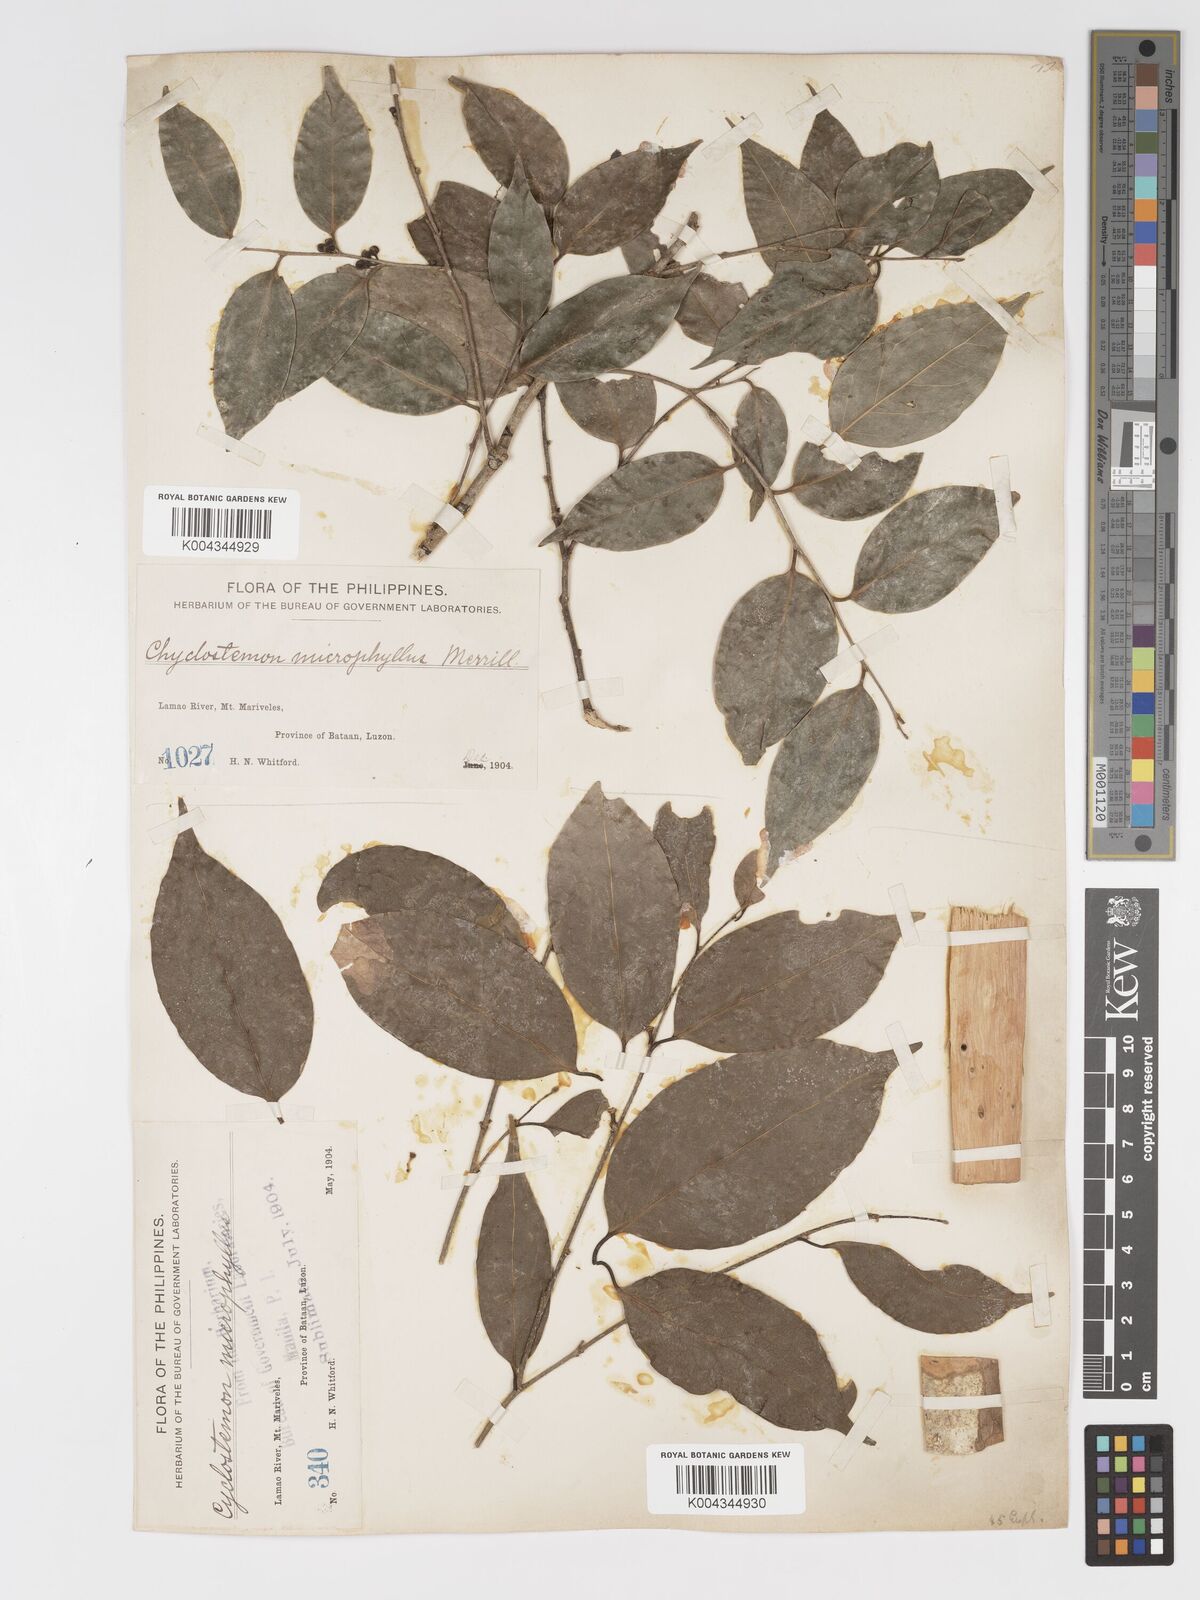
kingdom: Plantae
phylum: Tracheophyta
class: Magnoliopsida
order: Malpighiales
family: Putranjivaceae
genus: Drypetes
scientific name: Drypetes microphylla
